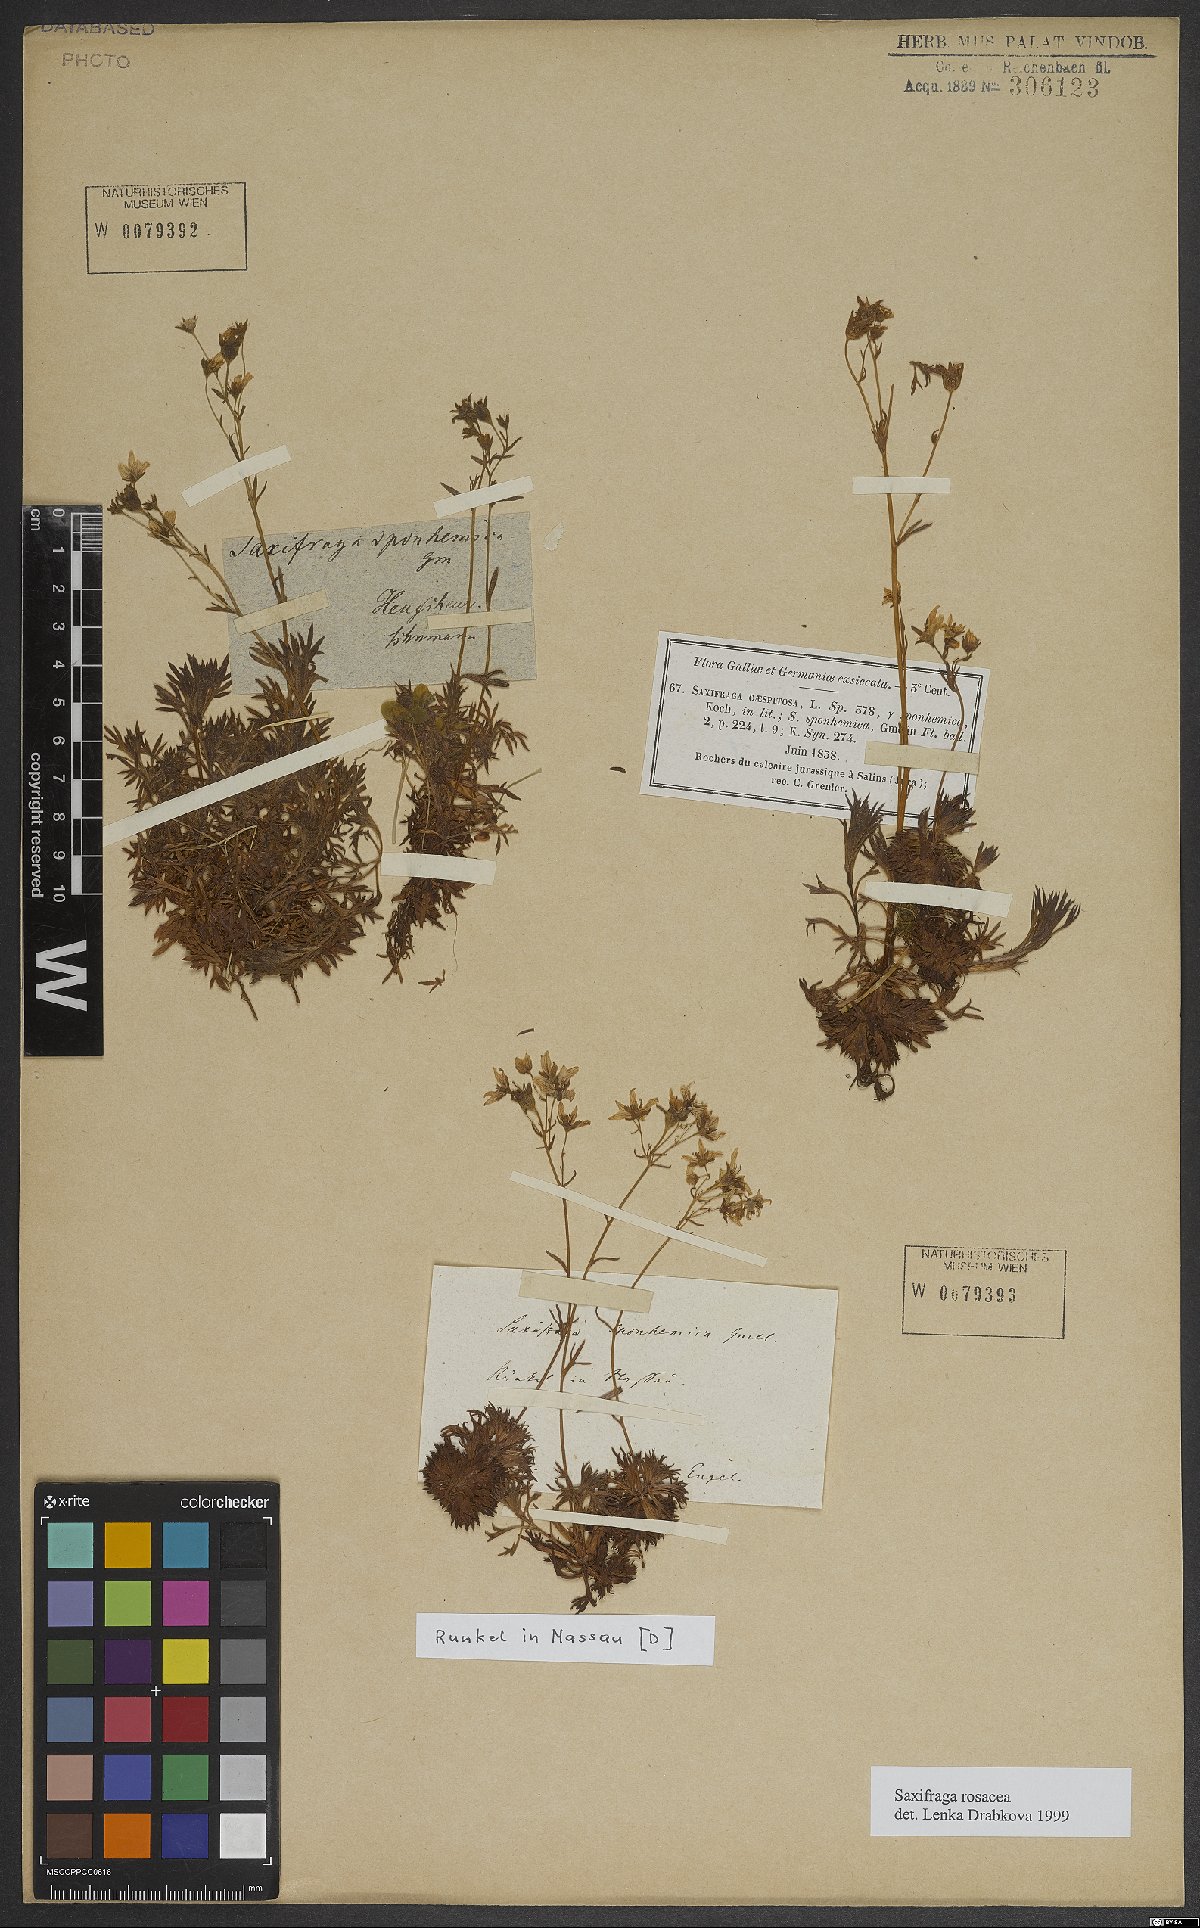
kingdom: Plantae
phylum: Tracheophyta
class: Magnoliopsida
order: Saxifragales
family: Saxifragaceae
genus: Saxifraga
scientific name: Saxifraga rosacea
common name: Irish saxifrage
